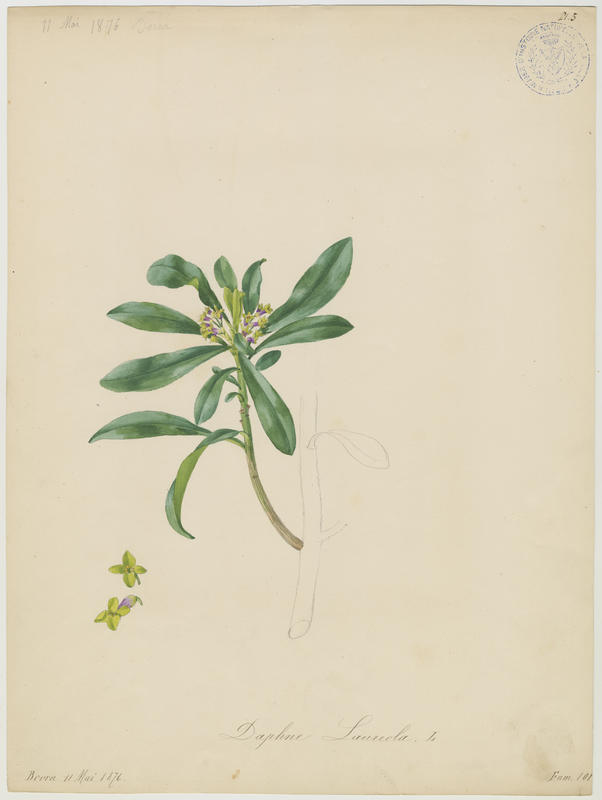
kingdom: Plantae
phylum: Tracheophyta
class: Magnoliopsida
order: Malvales
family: Thymelaeaceae
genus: Daphne
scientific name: Daphne laureola
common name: Spurge-laurel
